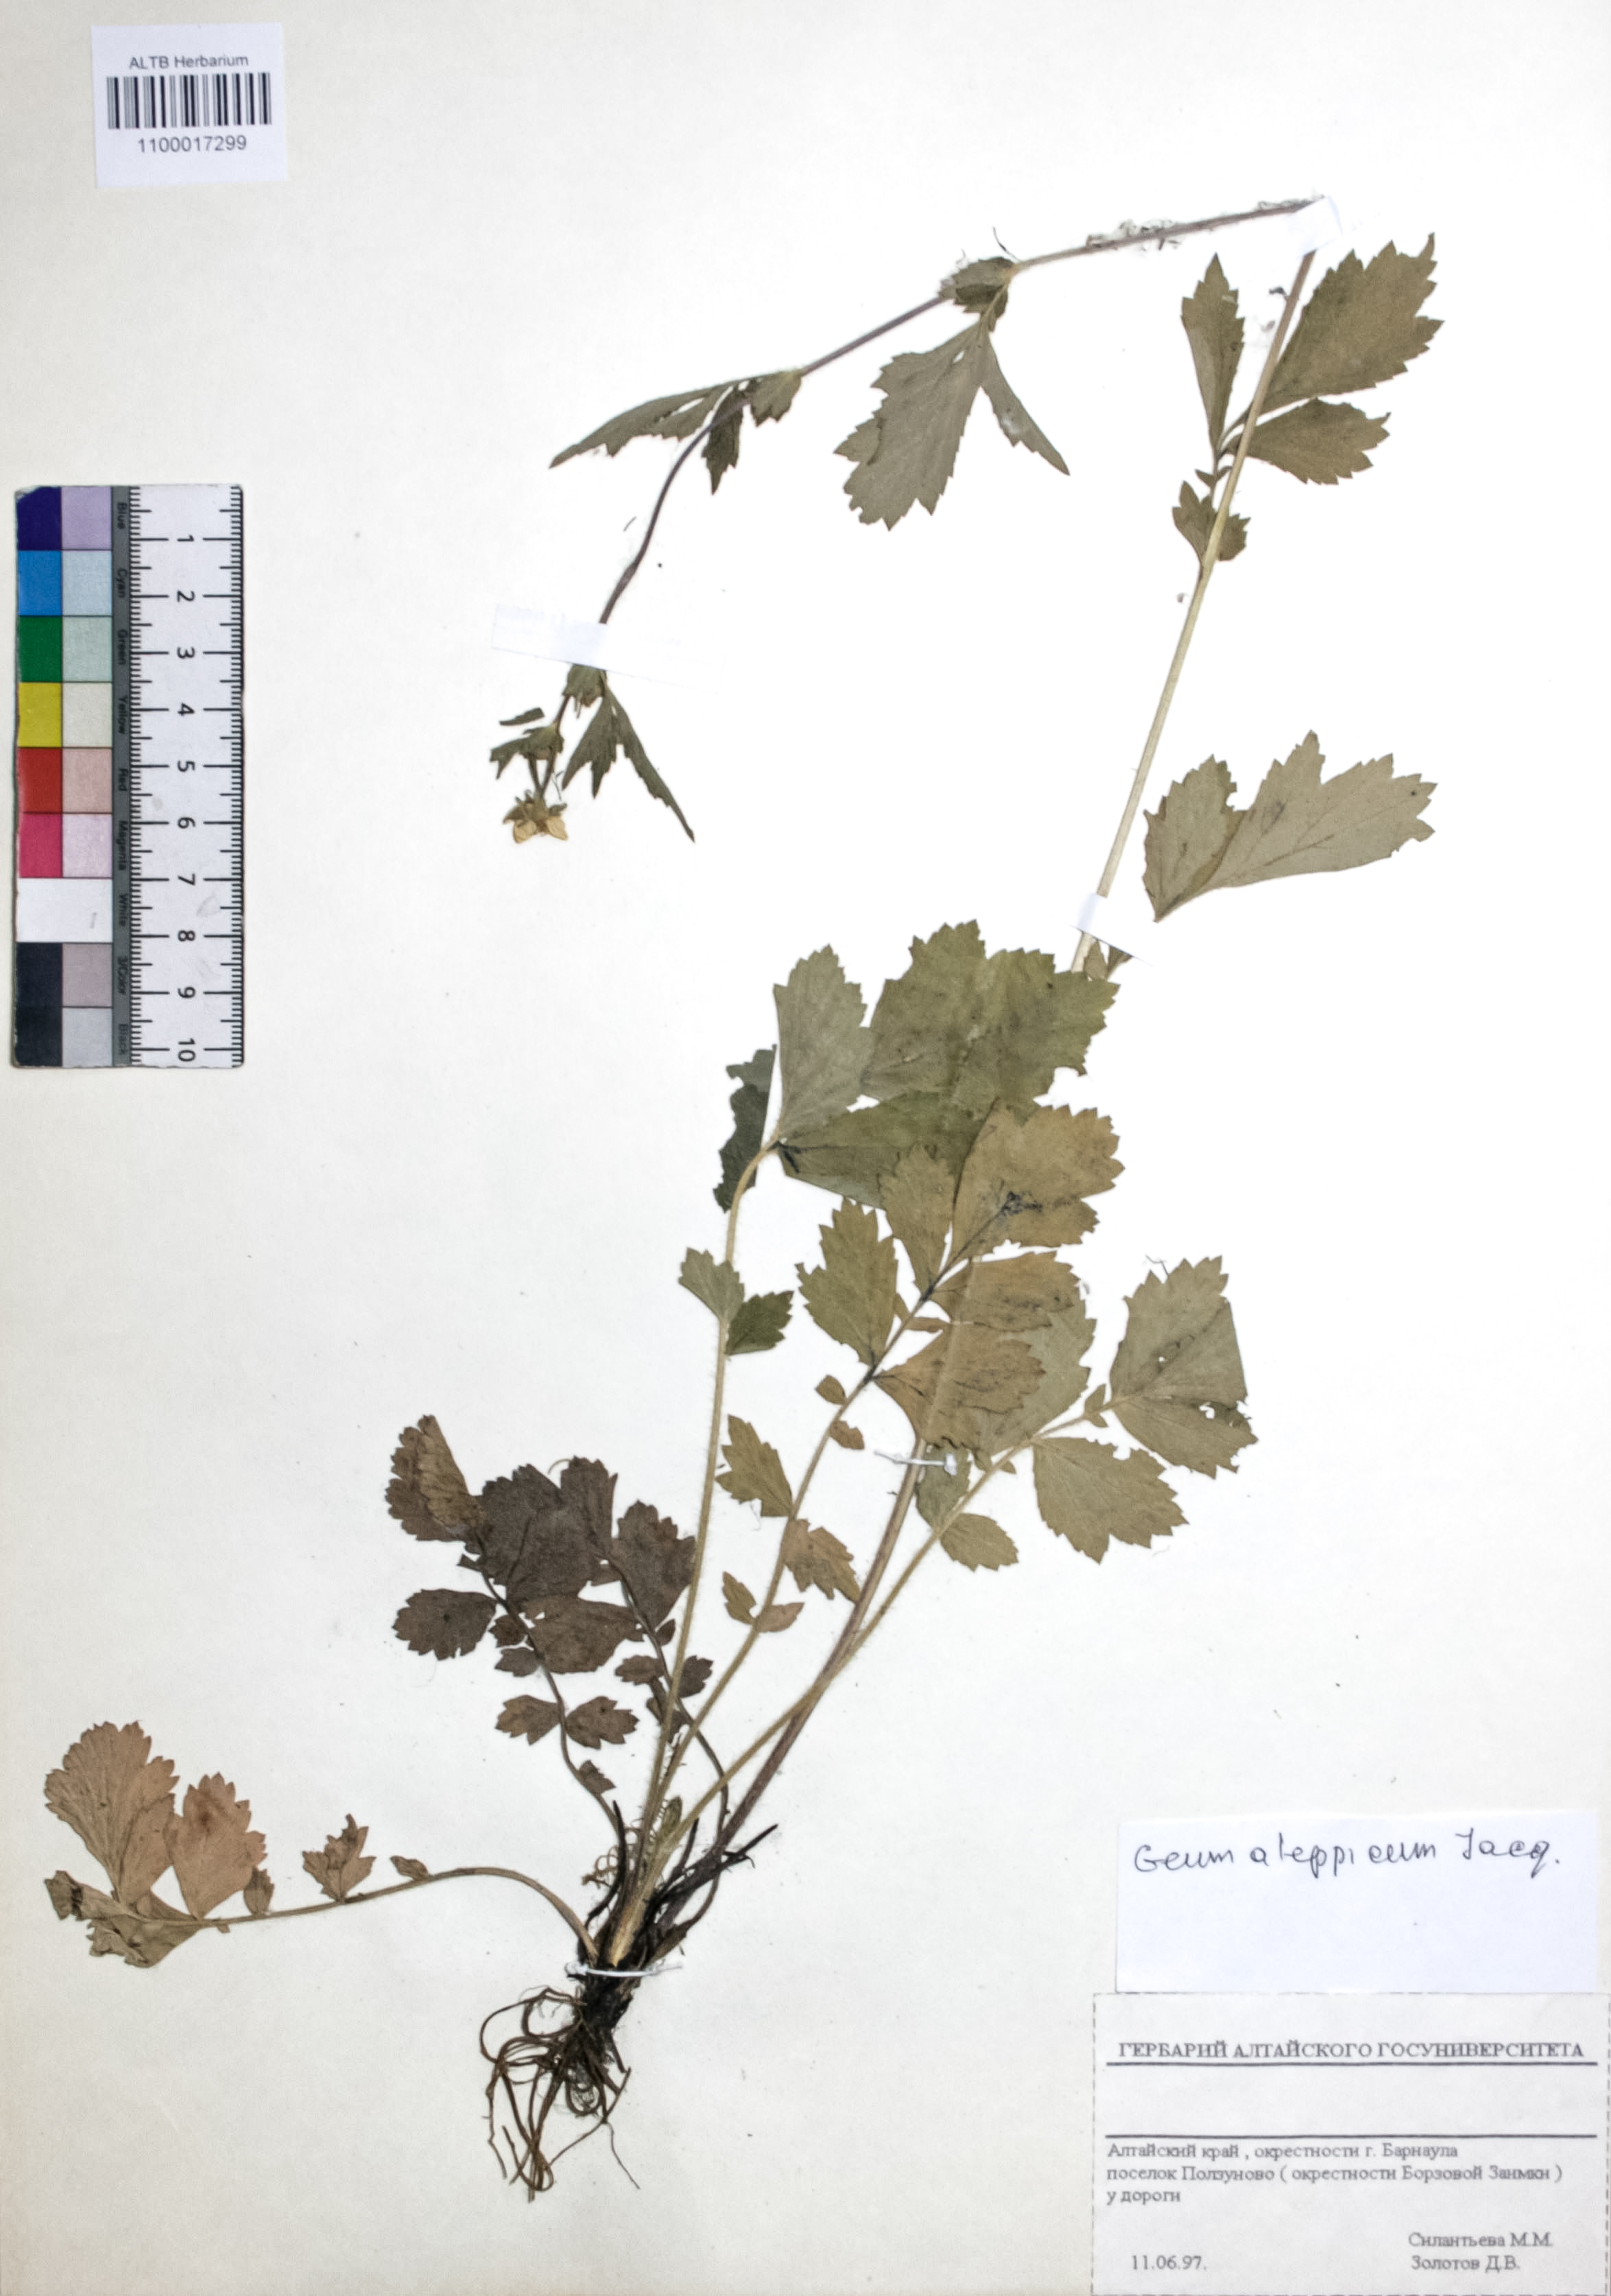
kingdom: Plantae
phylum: Tracheophyta
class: Magnoliopsida
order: Rosales
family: Rosaceae
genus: Geum
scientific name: Geum aleppicum
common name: Yellow avens
